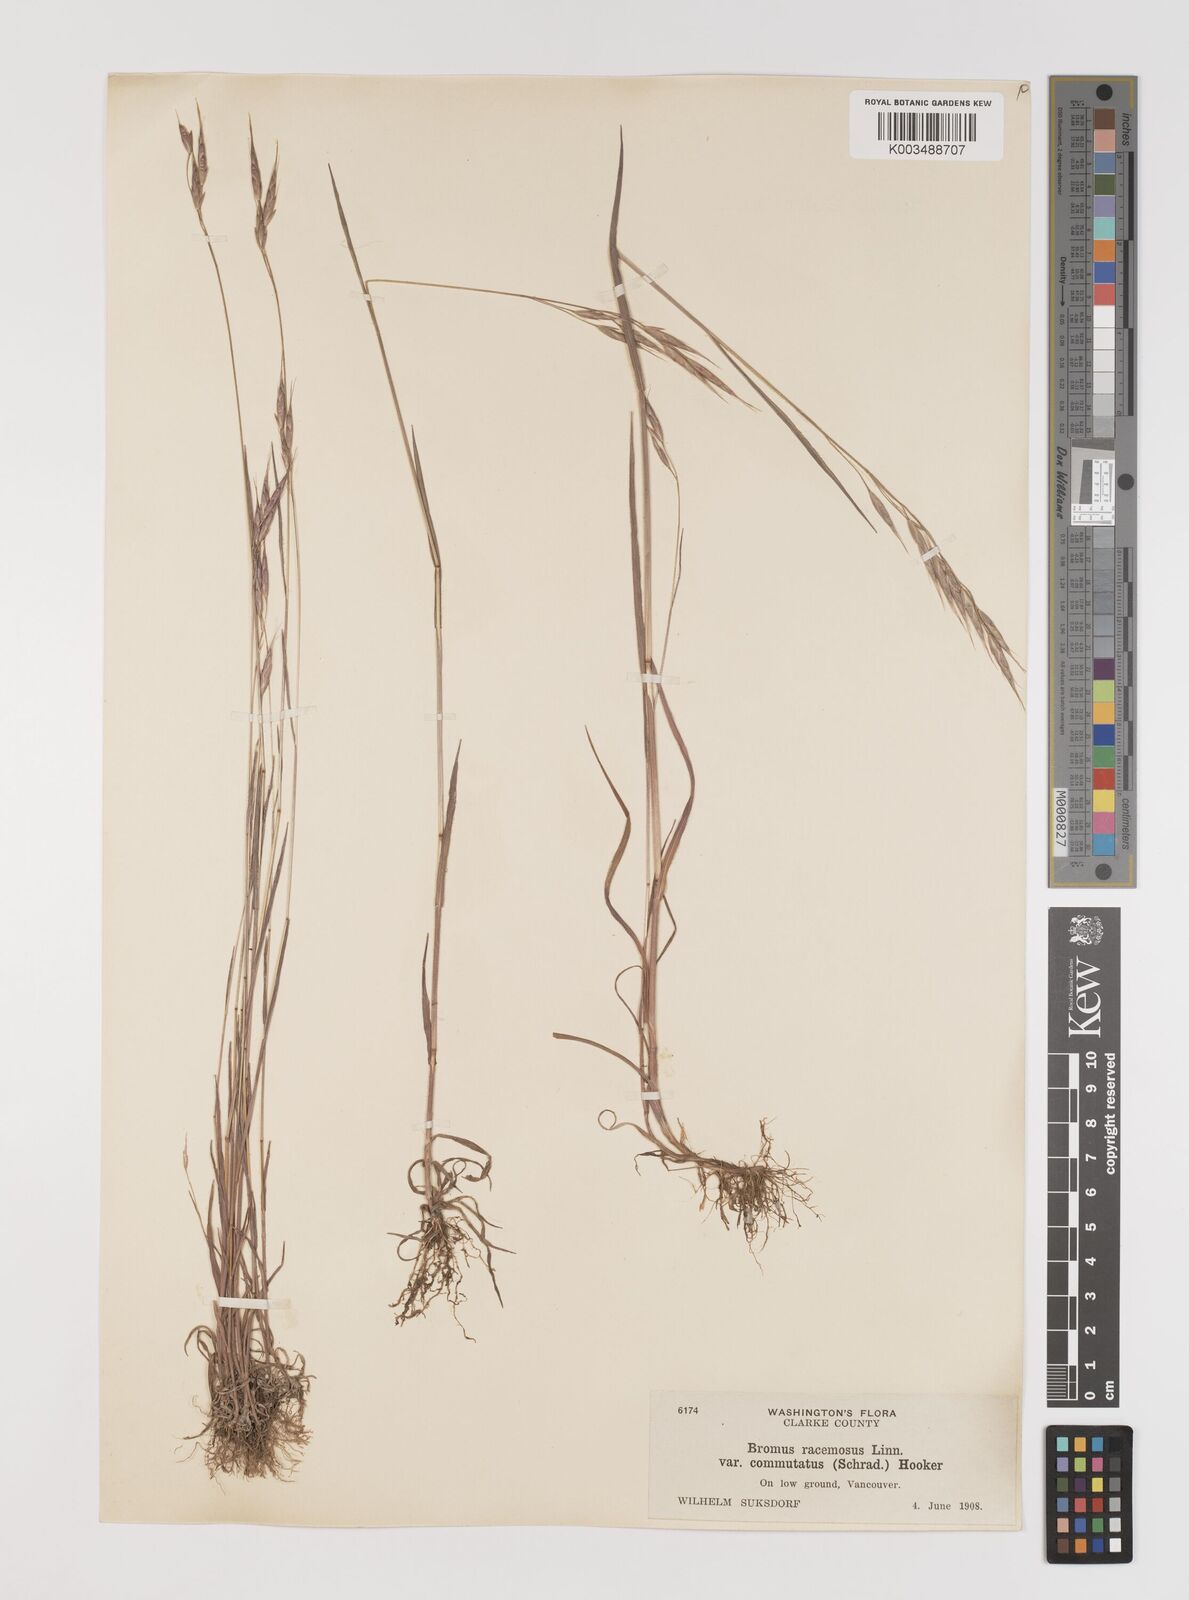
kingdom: Plantae
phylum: Tracheophyta
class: Liliopsida
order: Poales
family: Poaceae
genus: Bromus
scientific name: Bromus racemosus
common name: Bald brome
